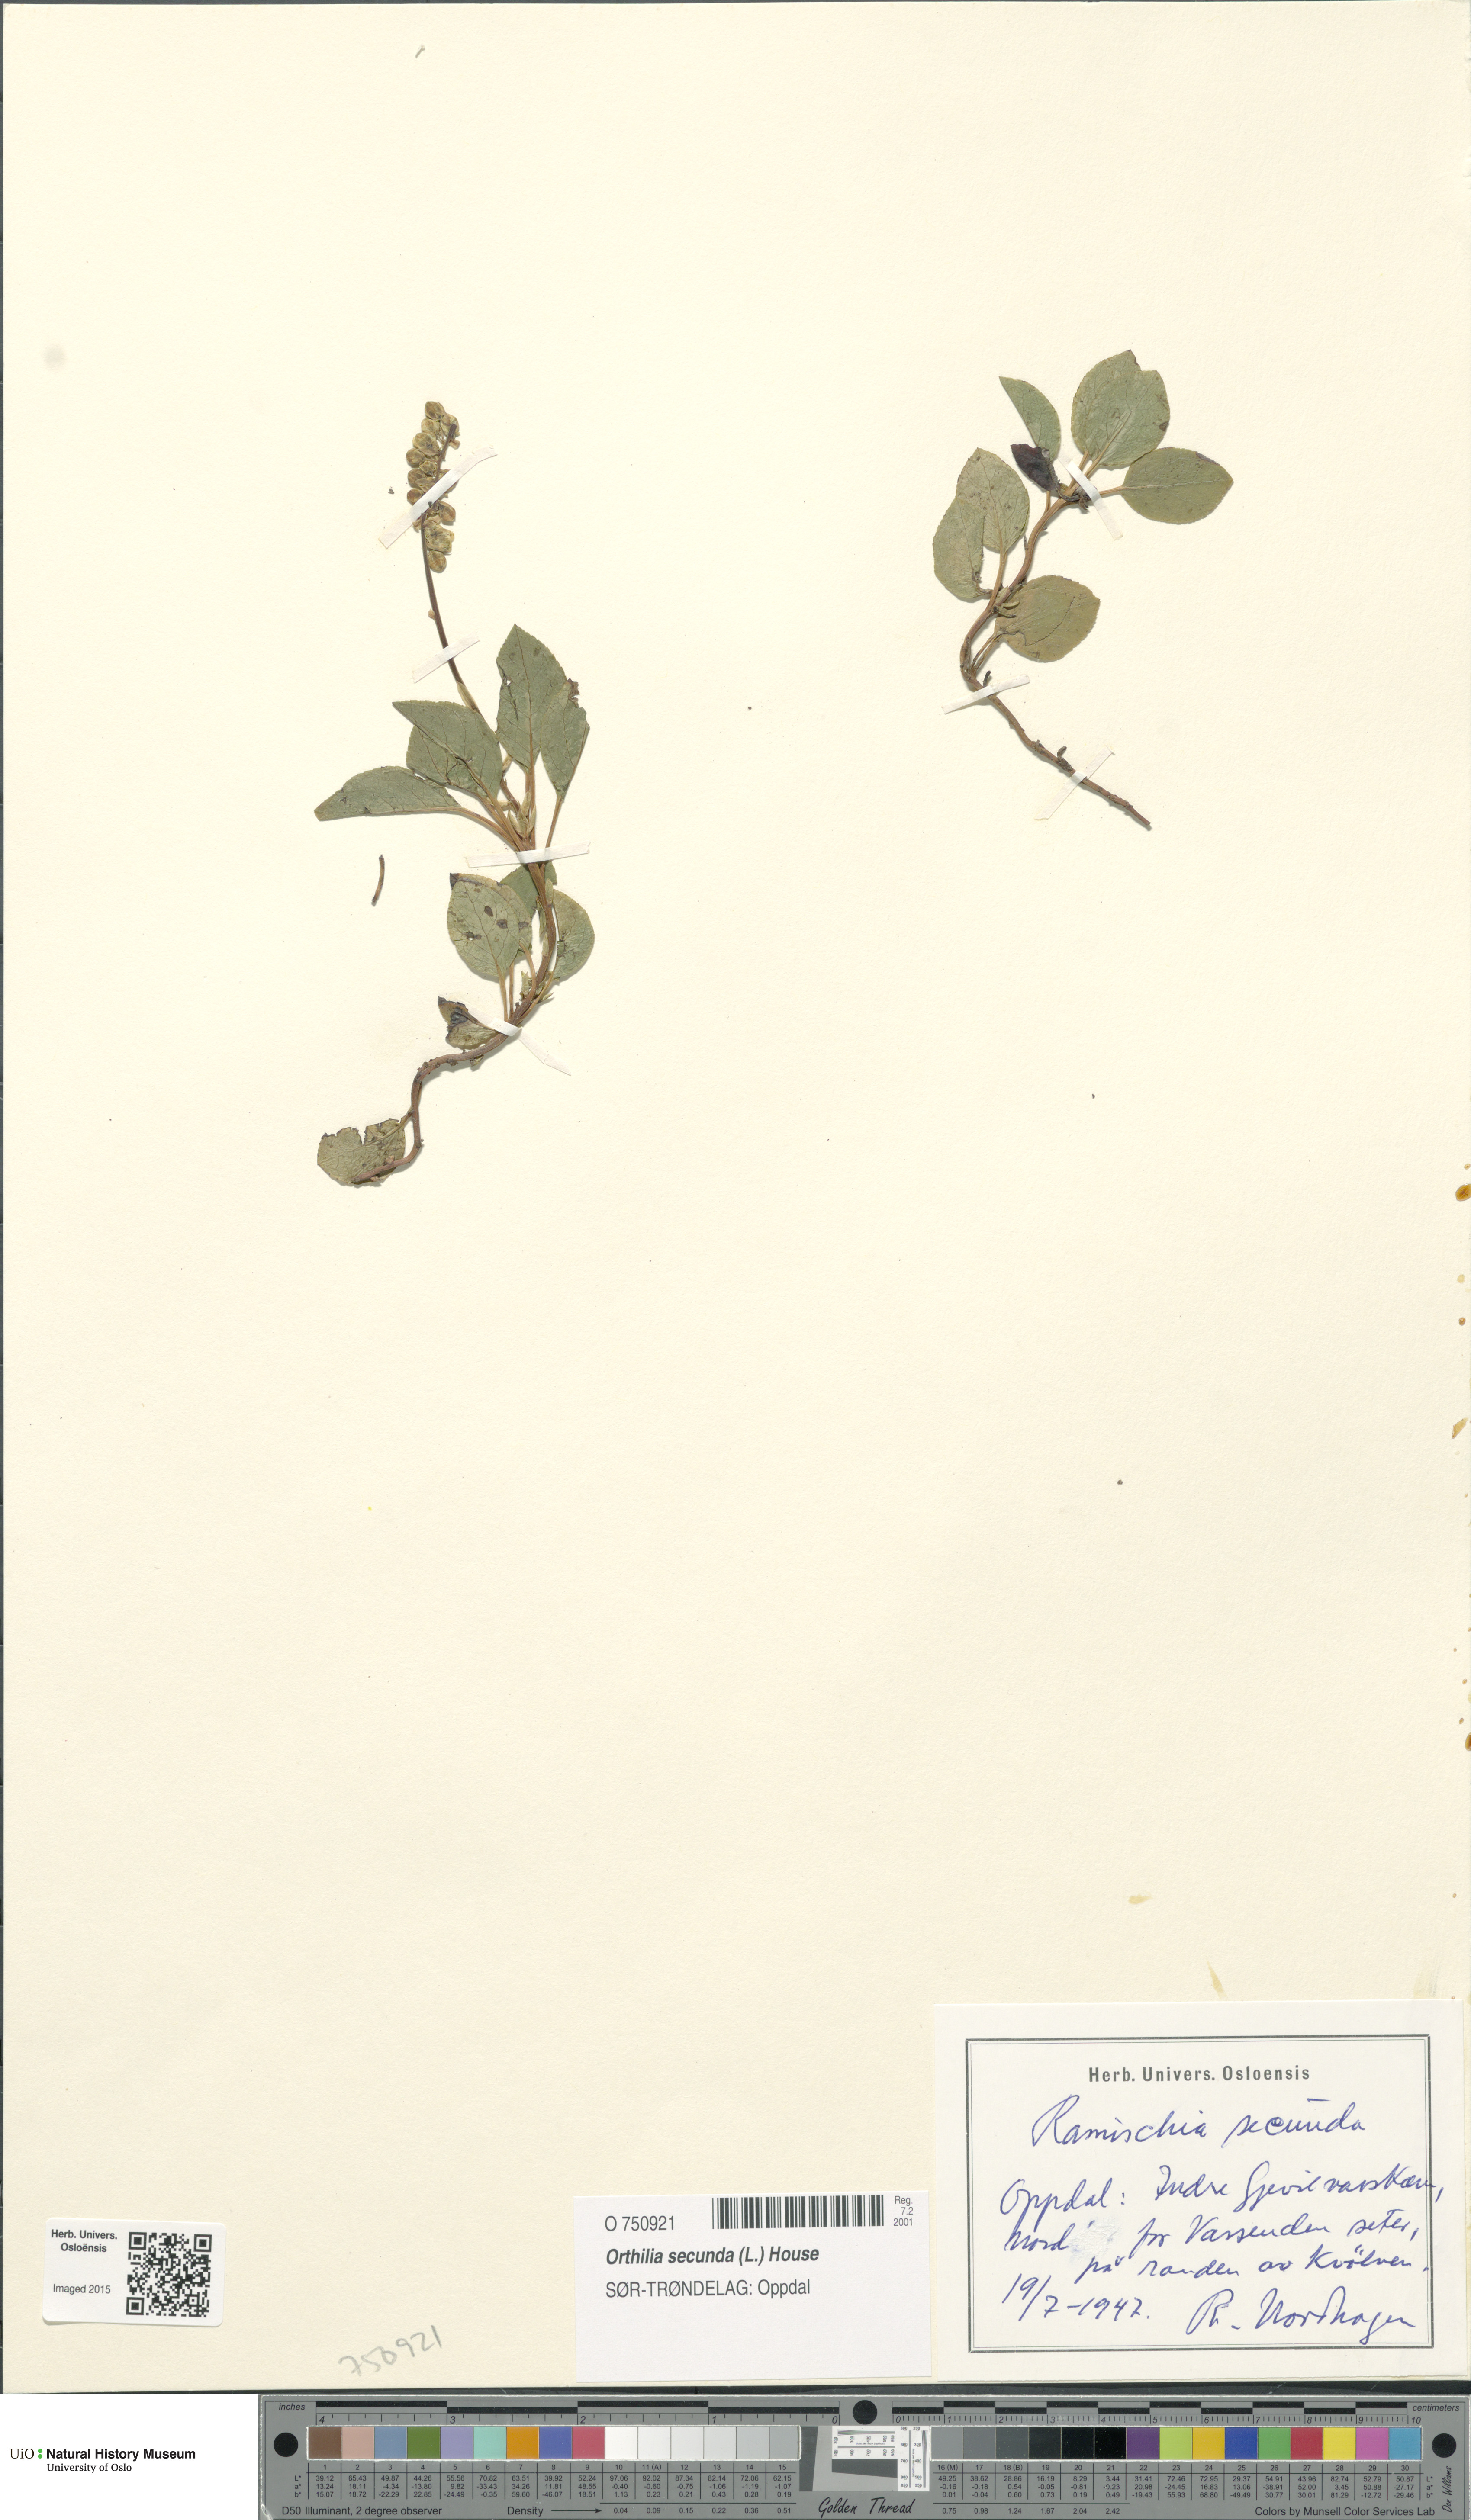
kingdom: Plantae
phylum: Tracheophyta
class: Magnoliopsida
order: Ericales
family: Ericaceae
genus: Orthilia
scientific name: Orthilia secunda
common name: One-sided orthilia
